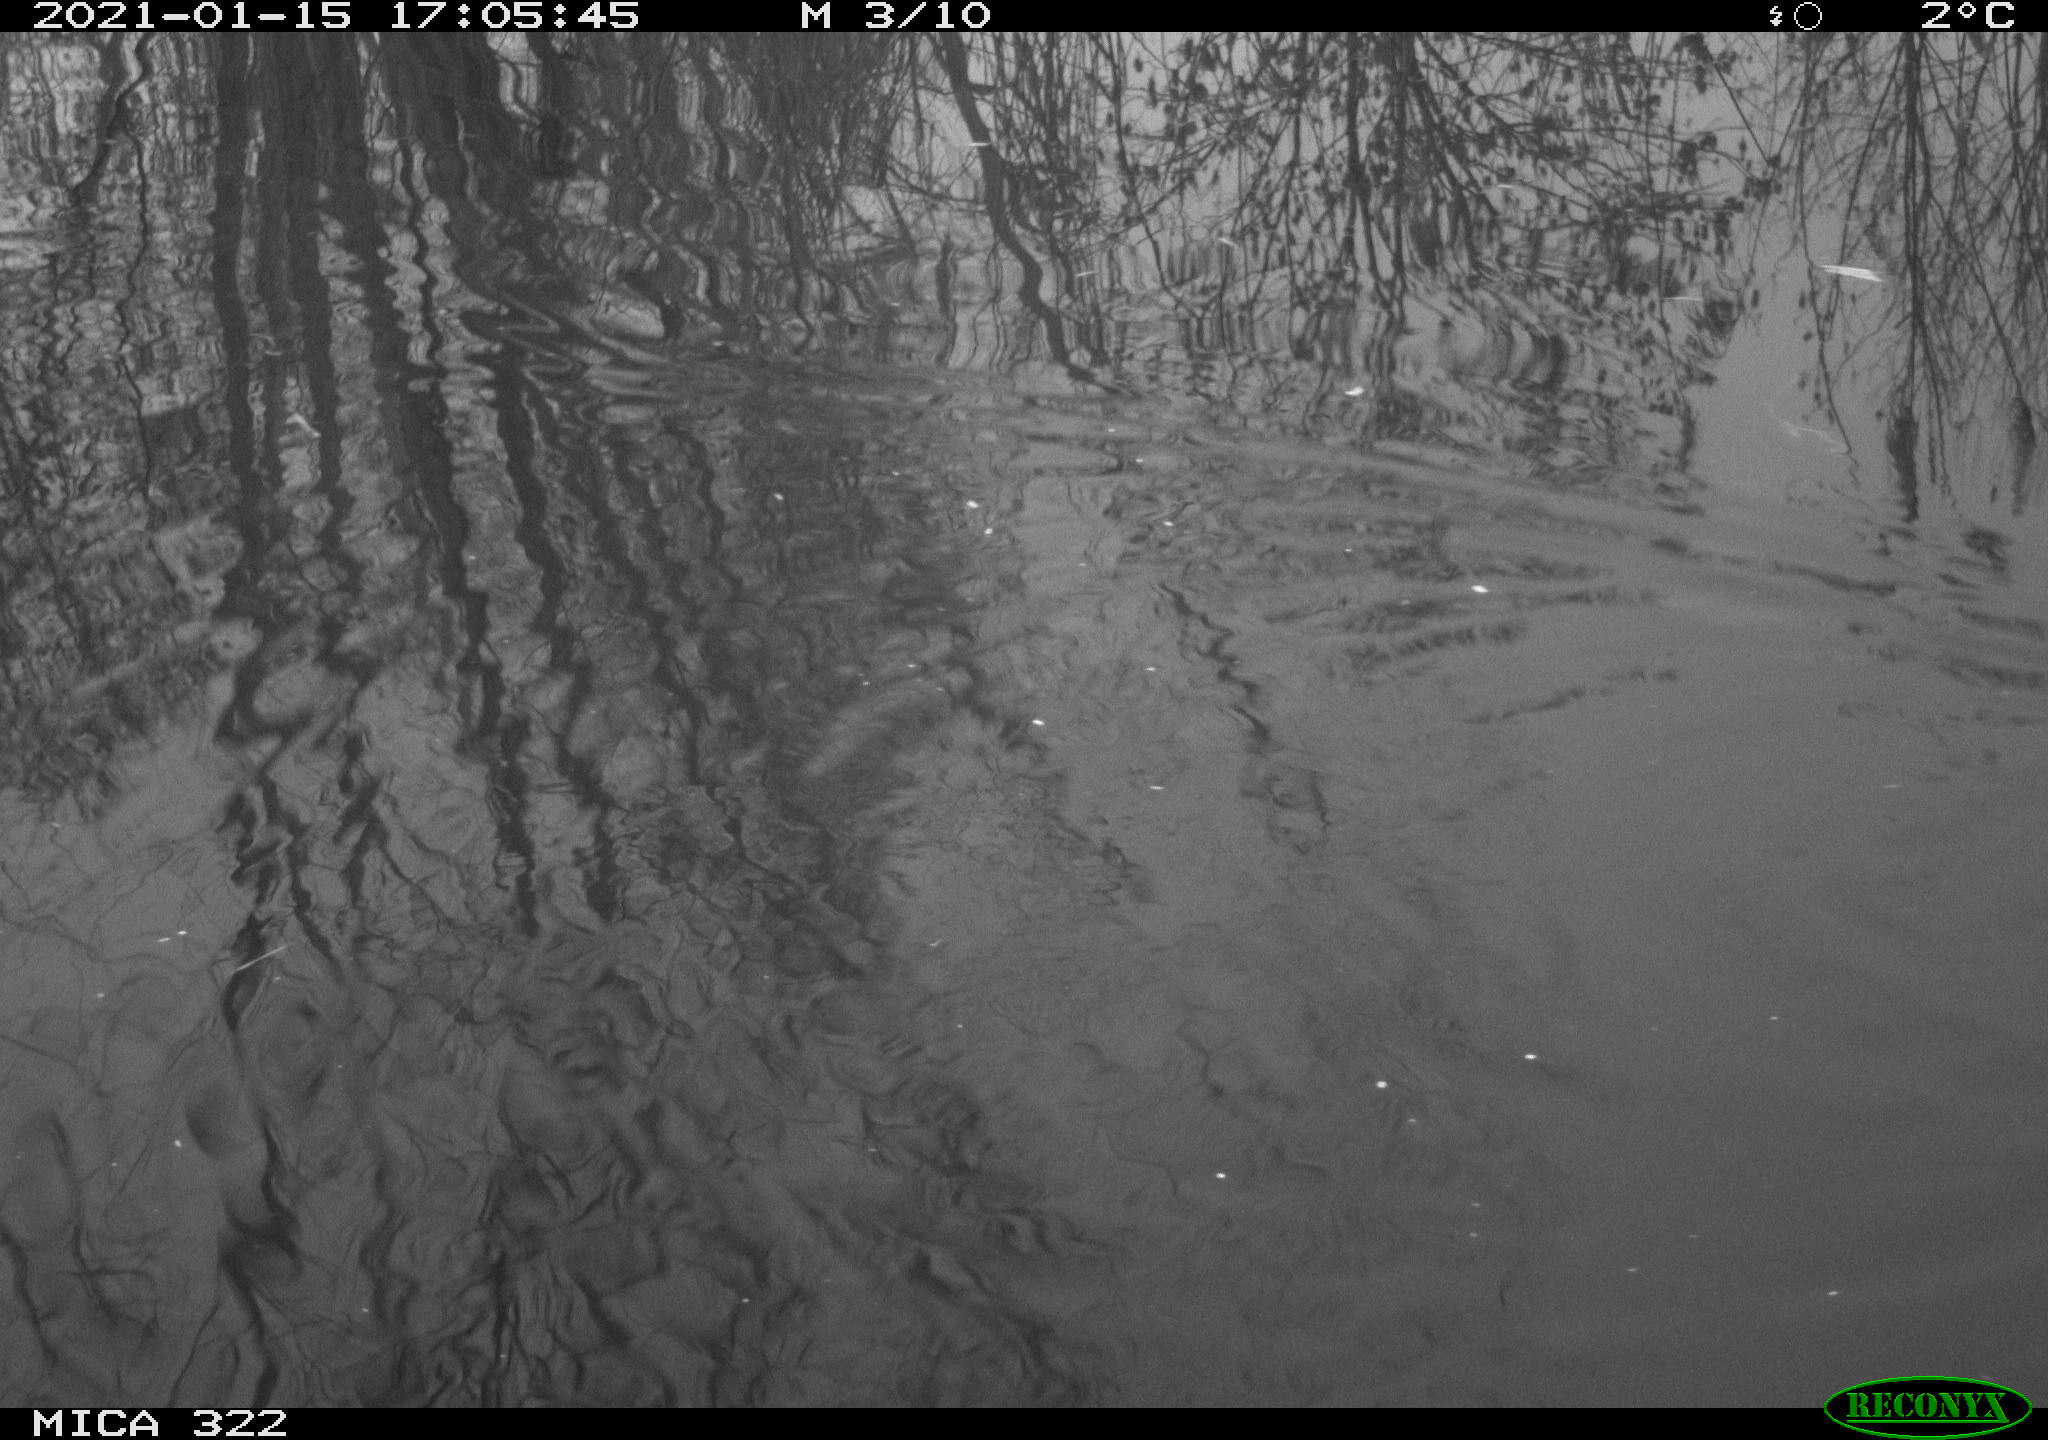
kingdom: Animalia
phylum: Chordata
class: Aves
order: Podicipediformes
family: Podicipedidae
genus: Tachybaptus
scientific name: Tachybaptus ruficollis
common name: Little grebe
